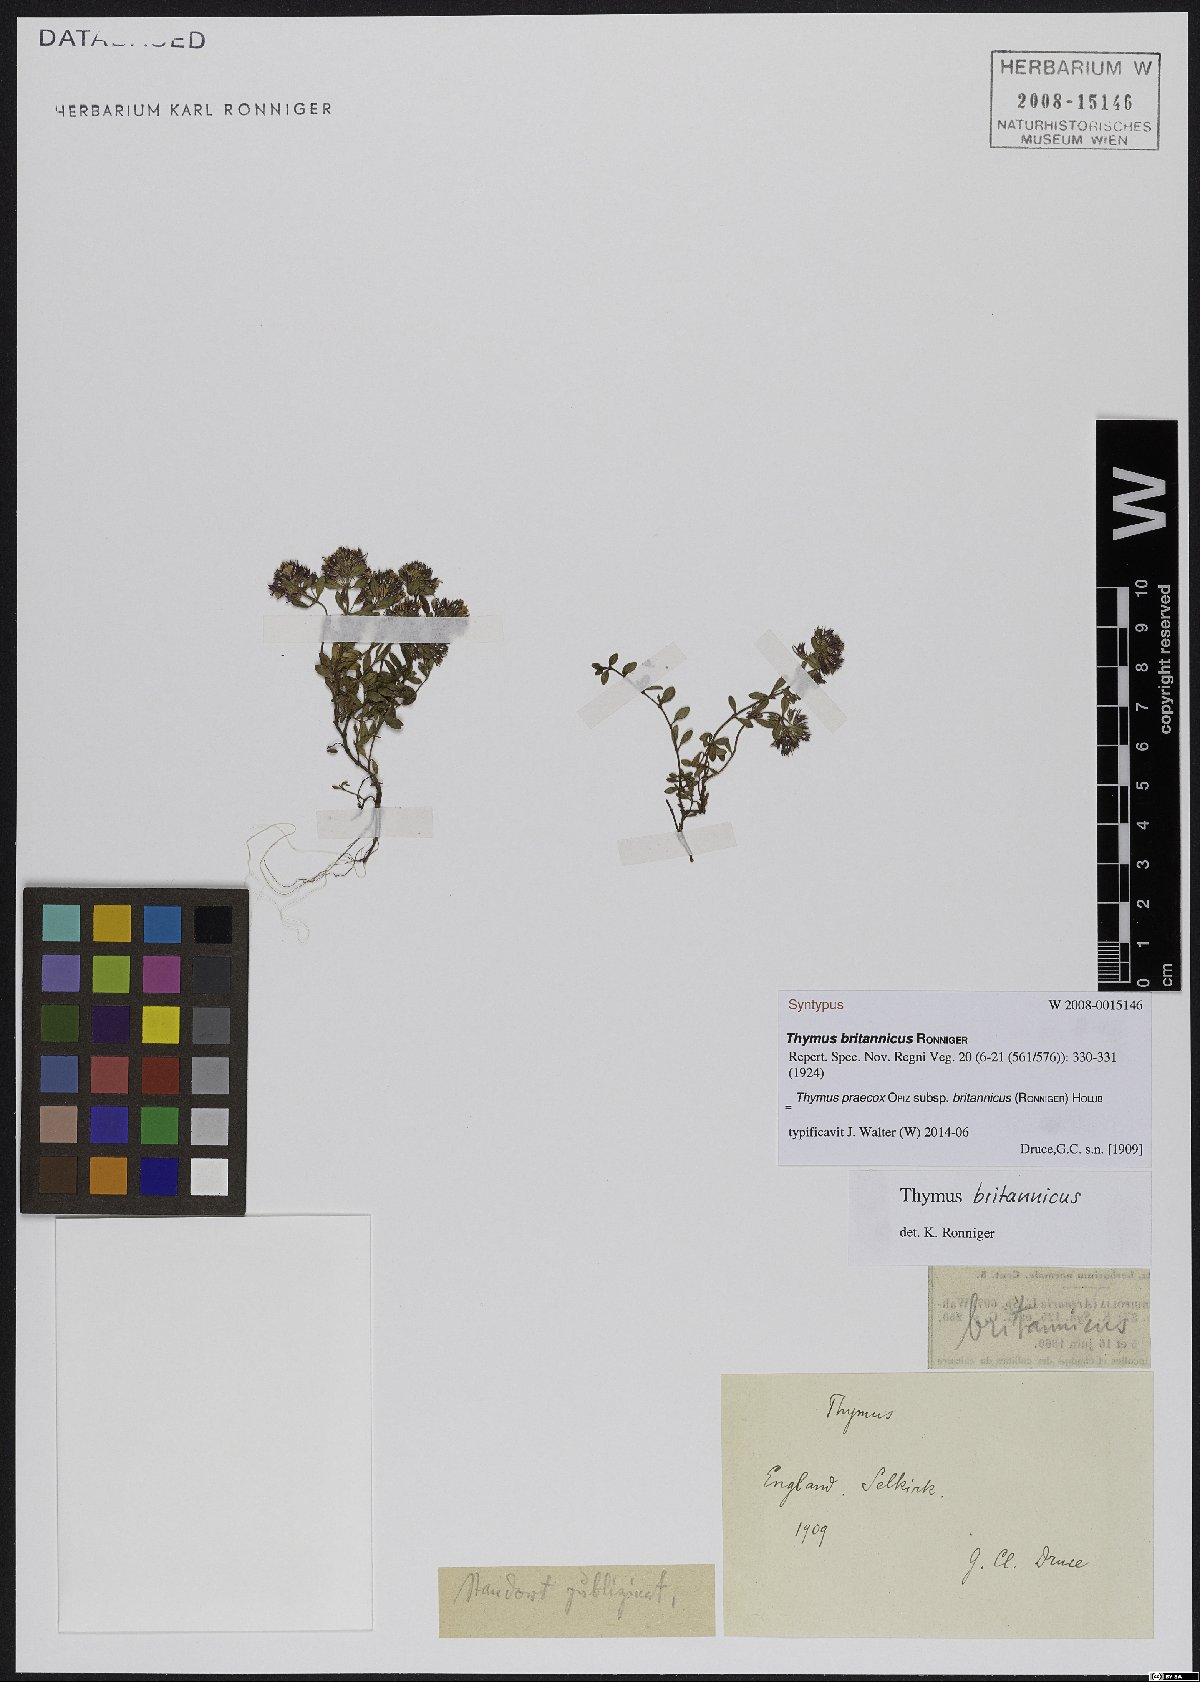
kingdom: Plantae
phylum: Tracheophyta
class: Magnoliopsida
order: Lamiales
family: Lamiaceae
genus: Thymus
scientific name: Thymus praecox
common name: Wild thyme
